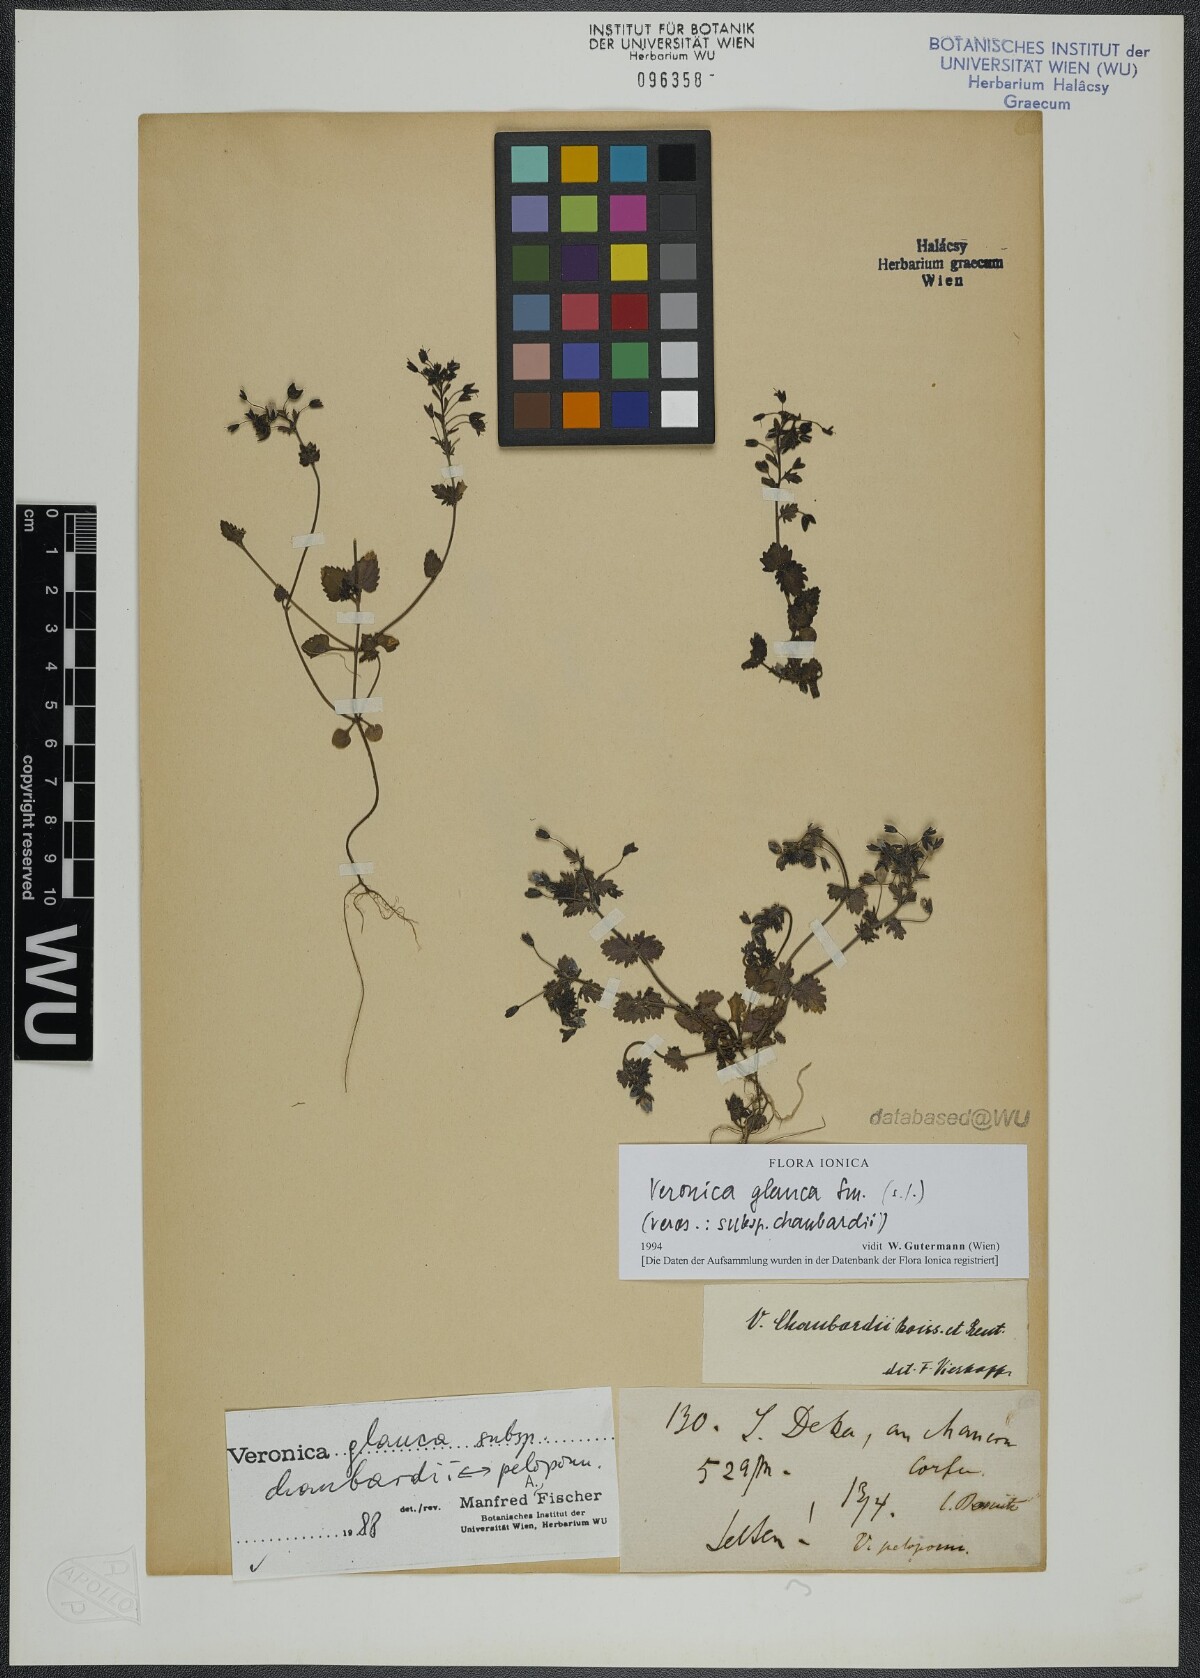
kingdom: Plantae
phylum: Tracheophyta
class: Magnoliopsida
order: Lamiales
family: Plantaginaceae
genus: Veronica
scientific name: Veronica glauca
